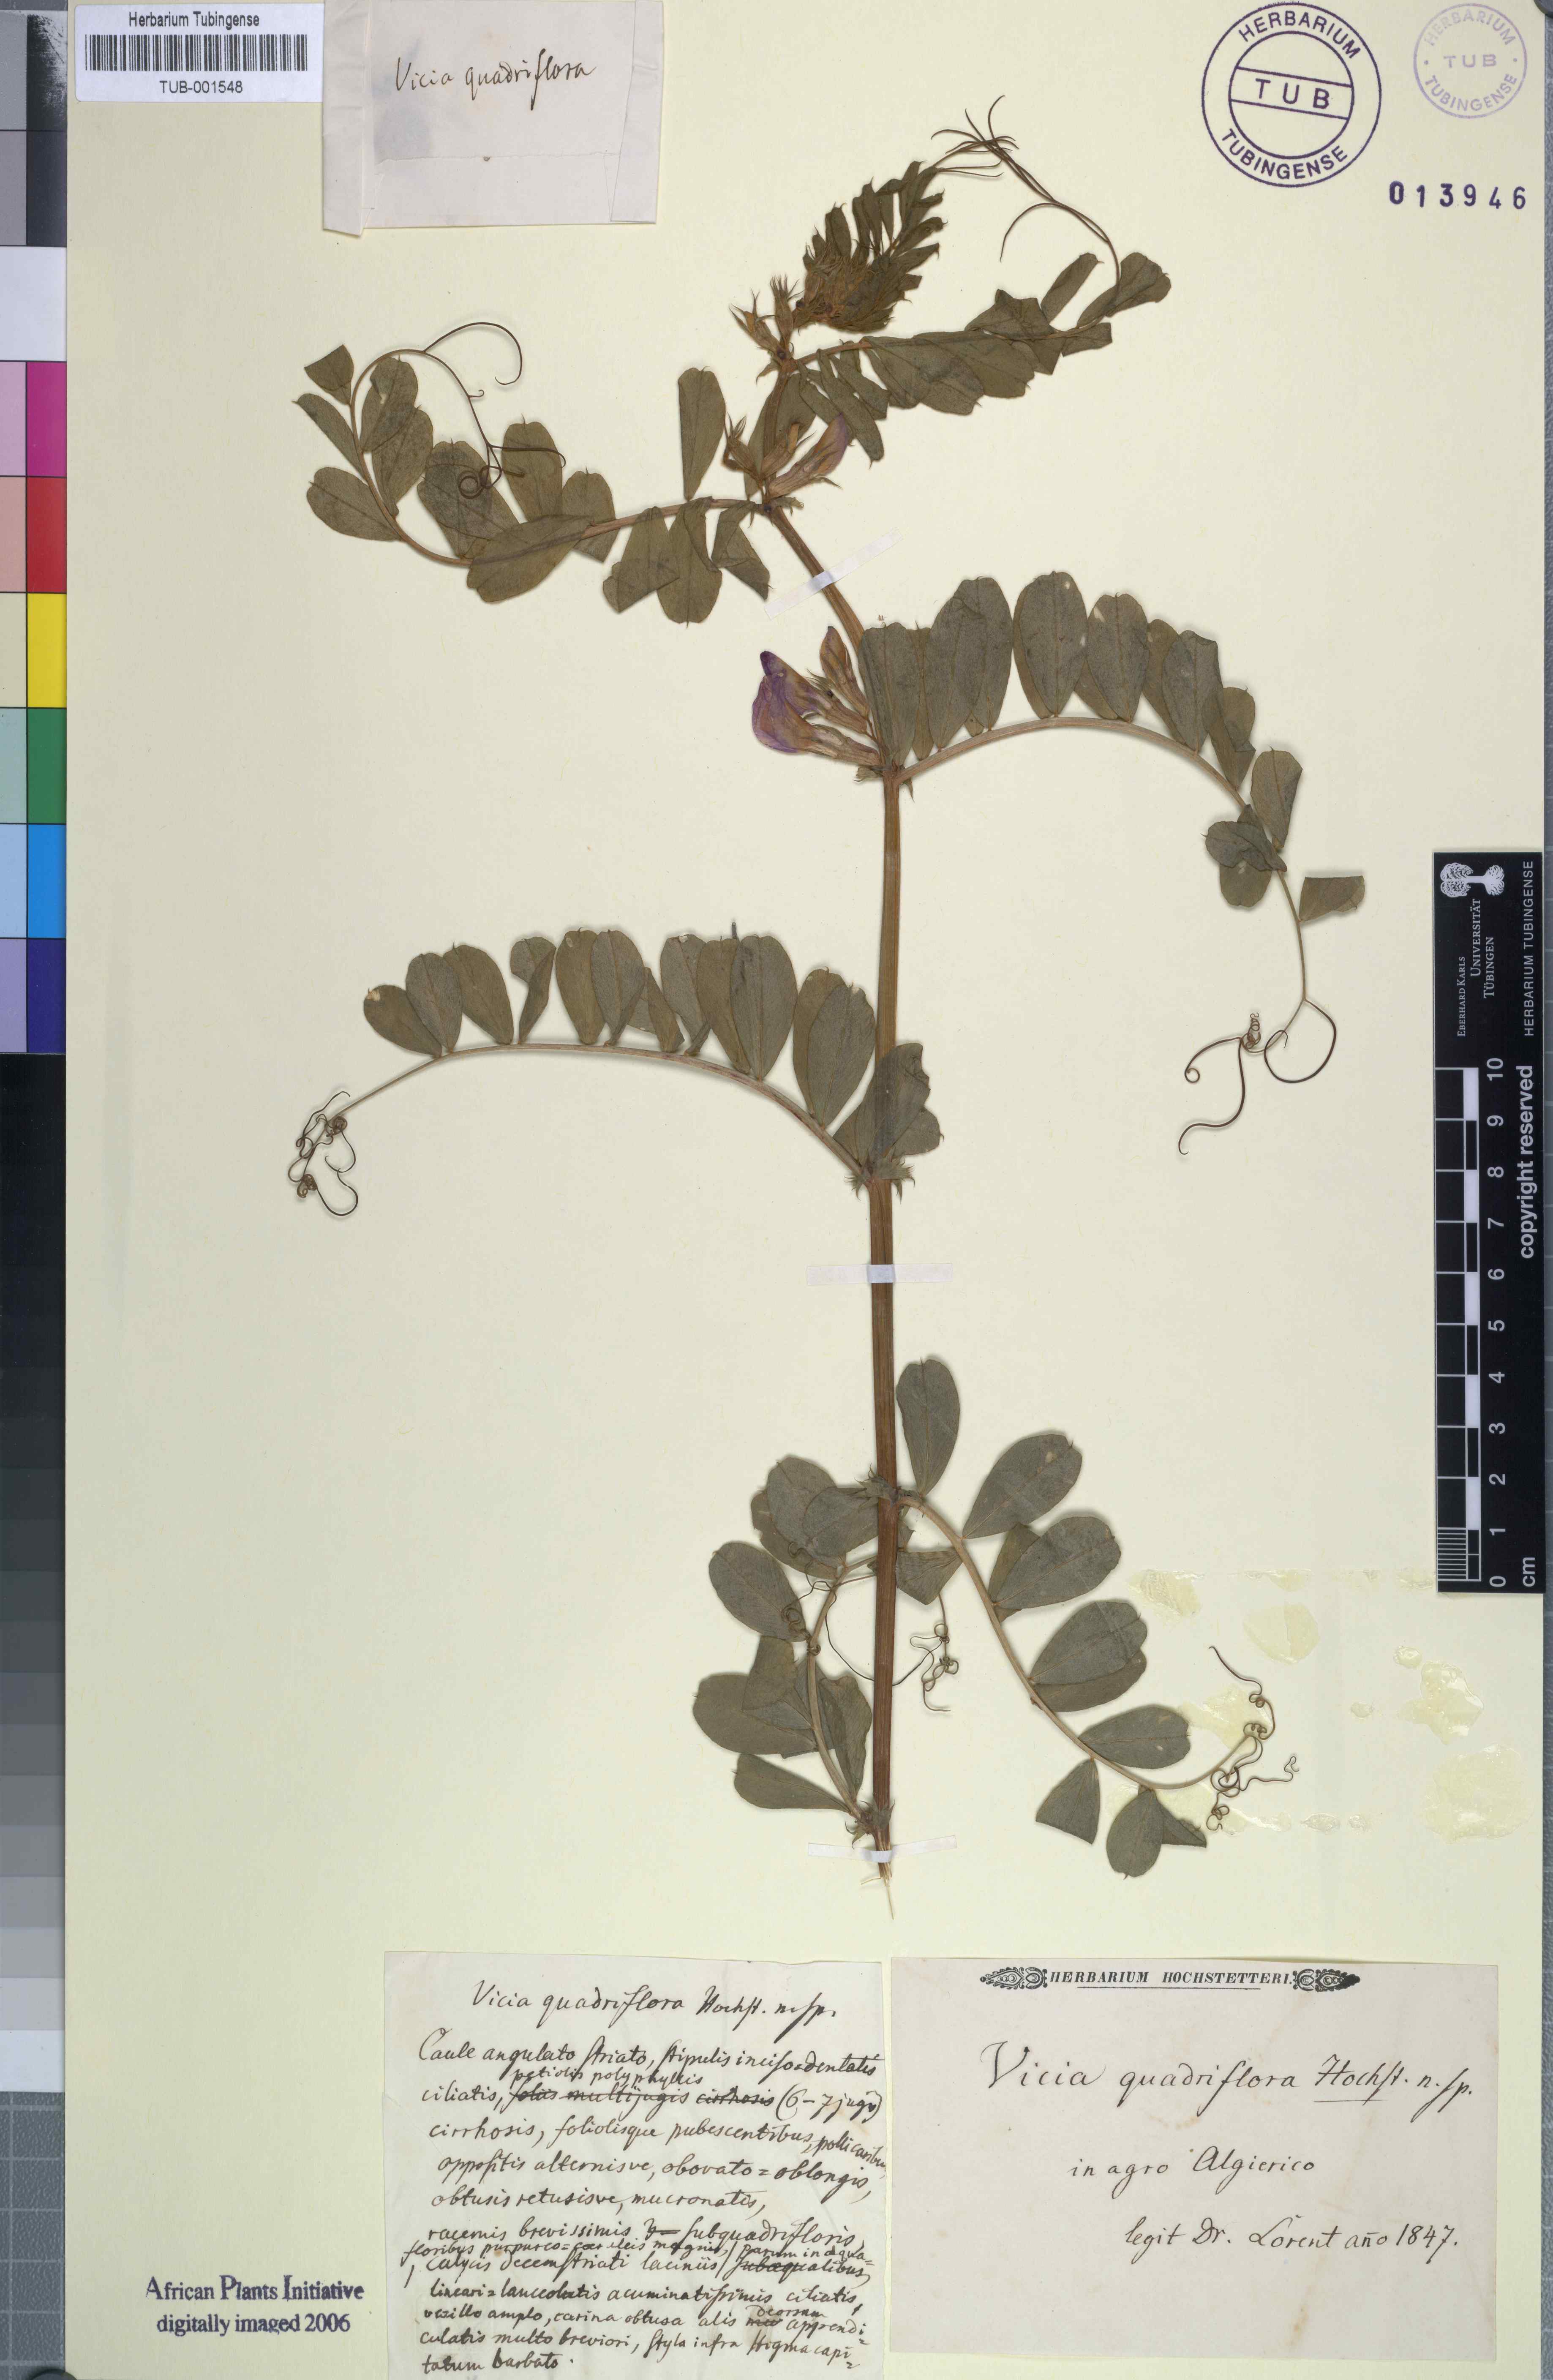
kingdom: Plantae
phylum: Tracheophyta
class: Magnoliopsida
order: Fabales
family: Fabaceae
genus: Vicia
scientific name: Vicia
